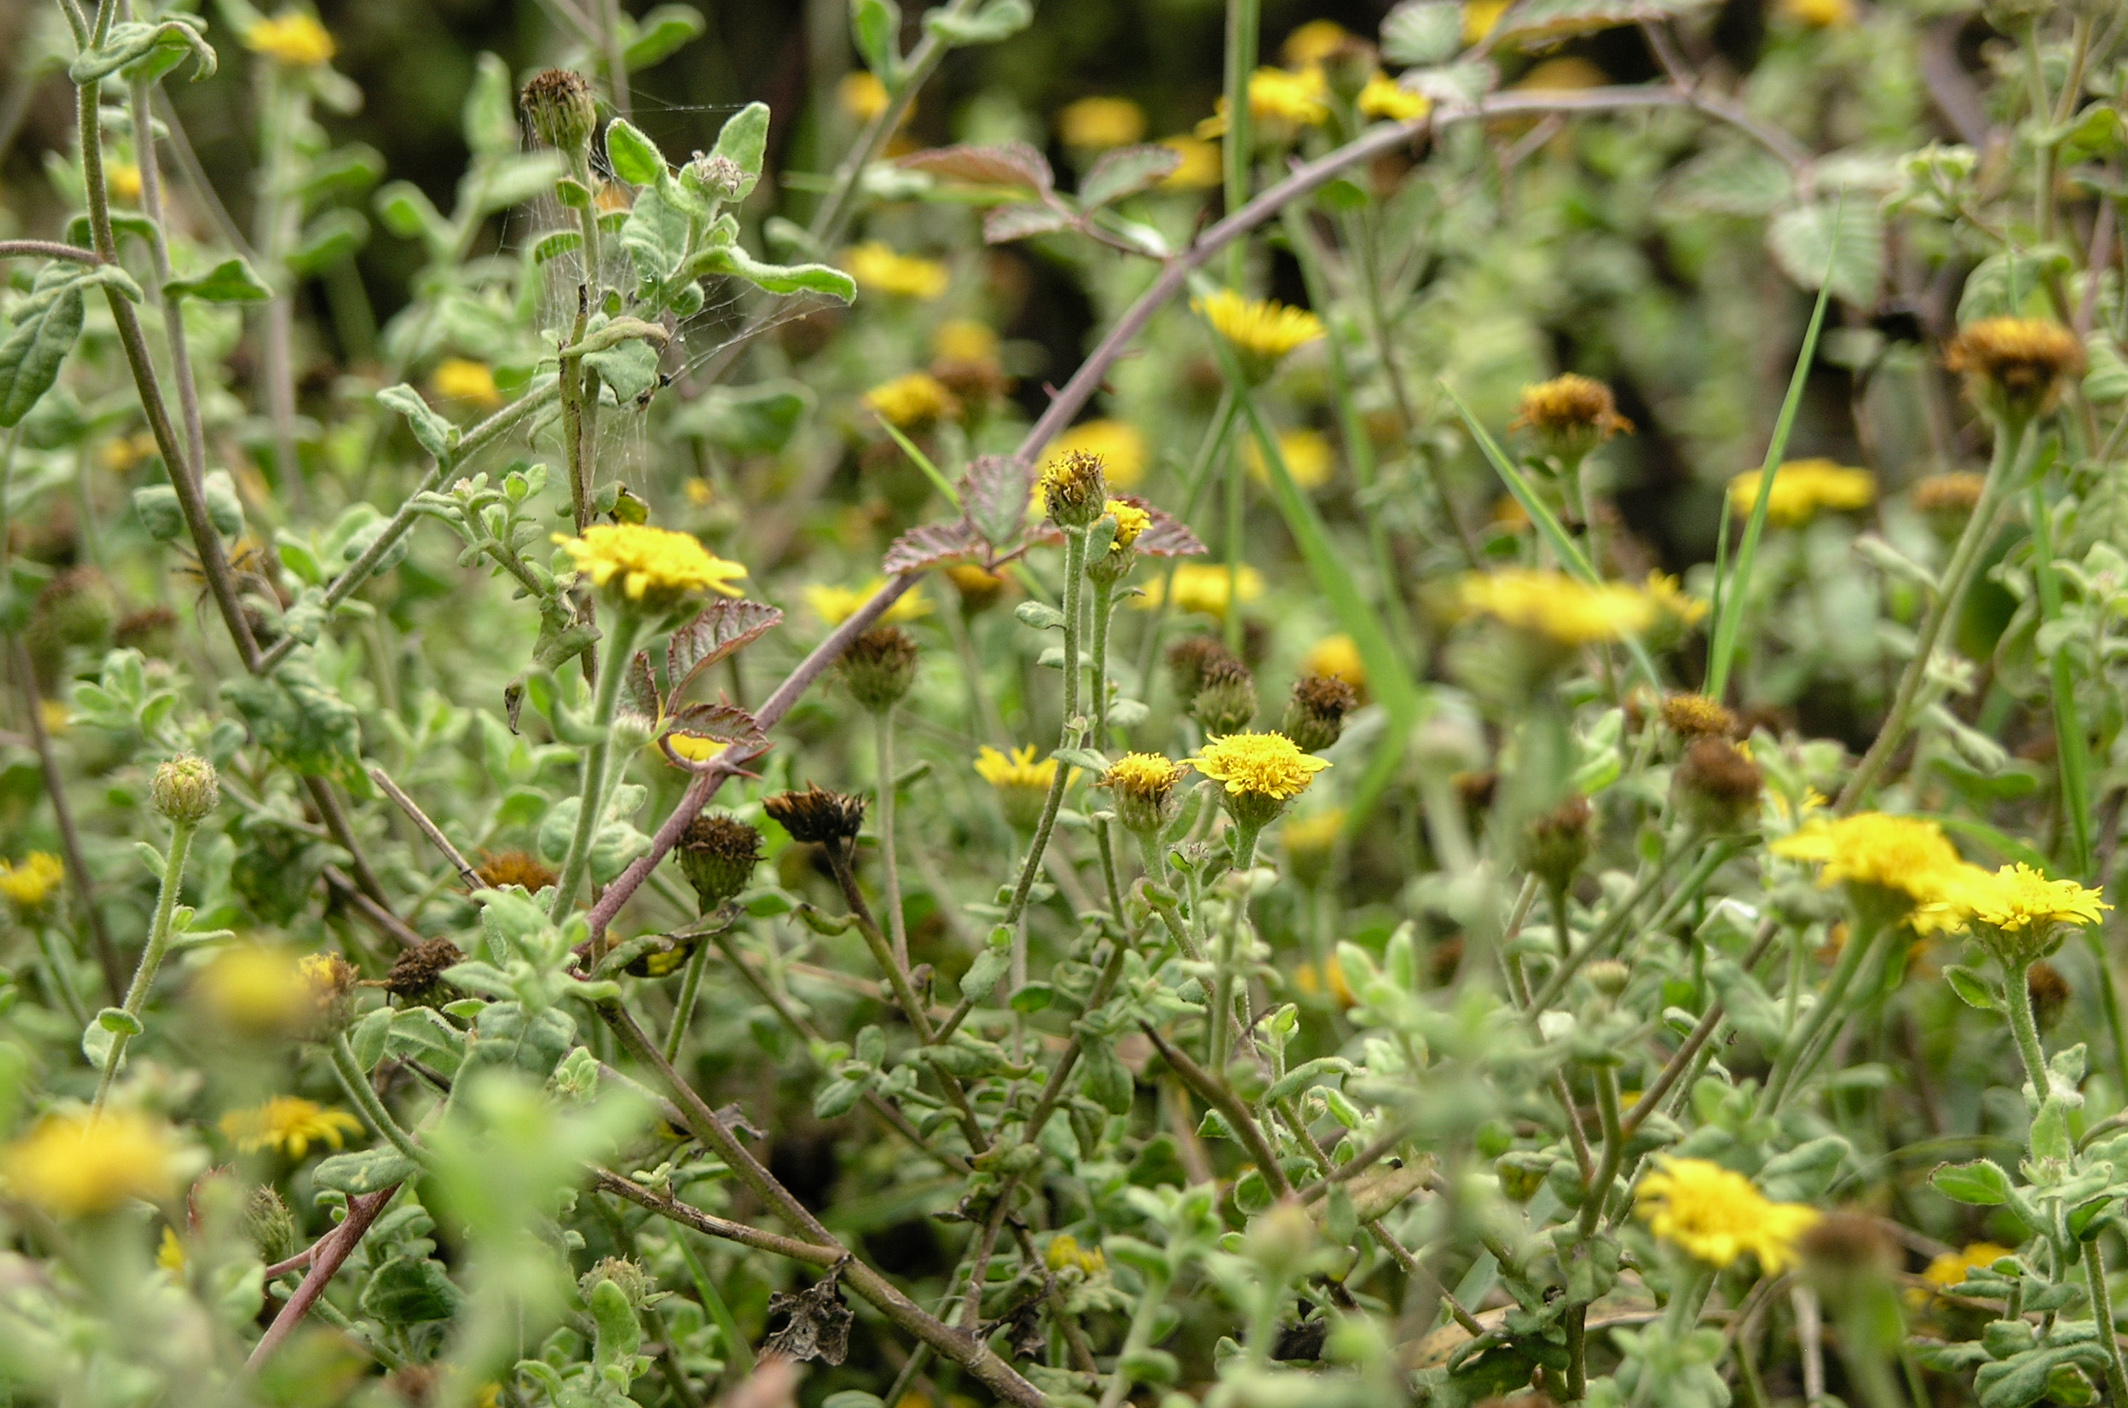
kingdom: Plantae
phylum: Tracheophyta
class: Magnoliopsida
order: Asterales
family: Asteraceae
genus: Pulicaria
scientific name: Pulicaria dysenterica
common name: Common fleabane
